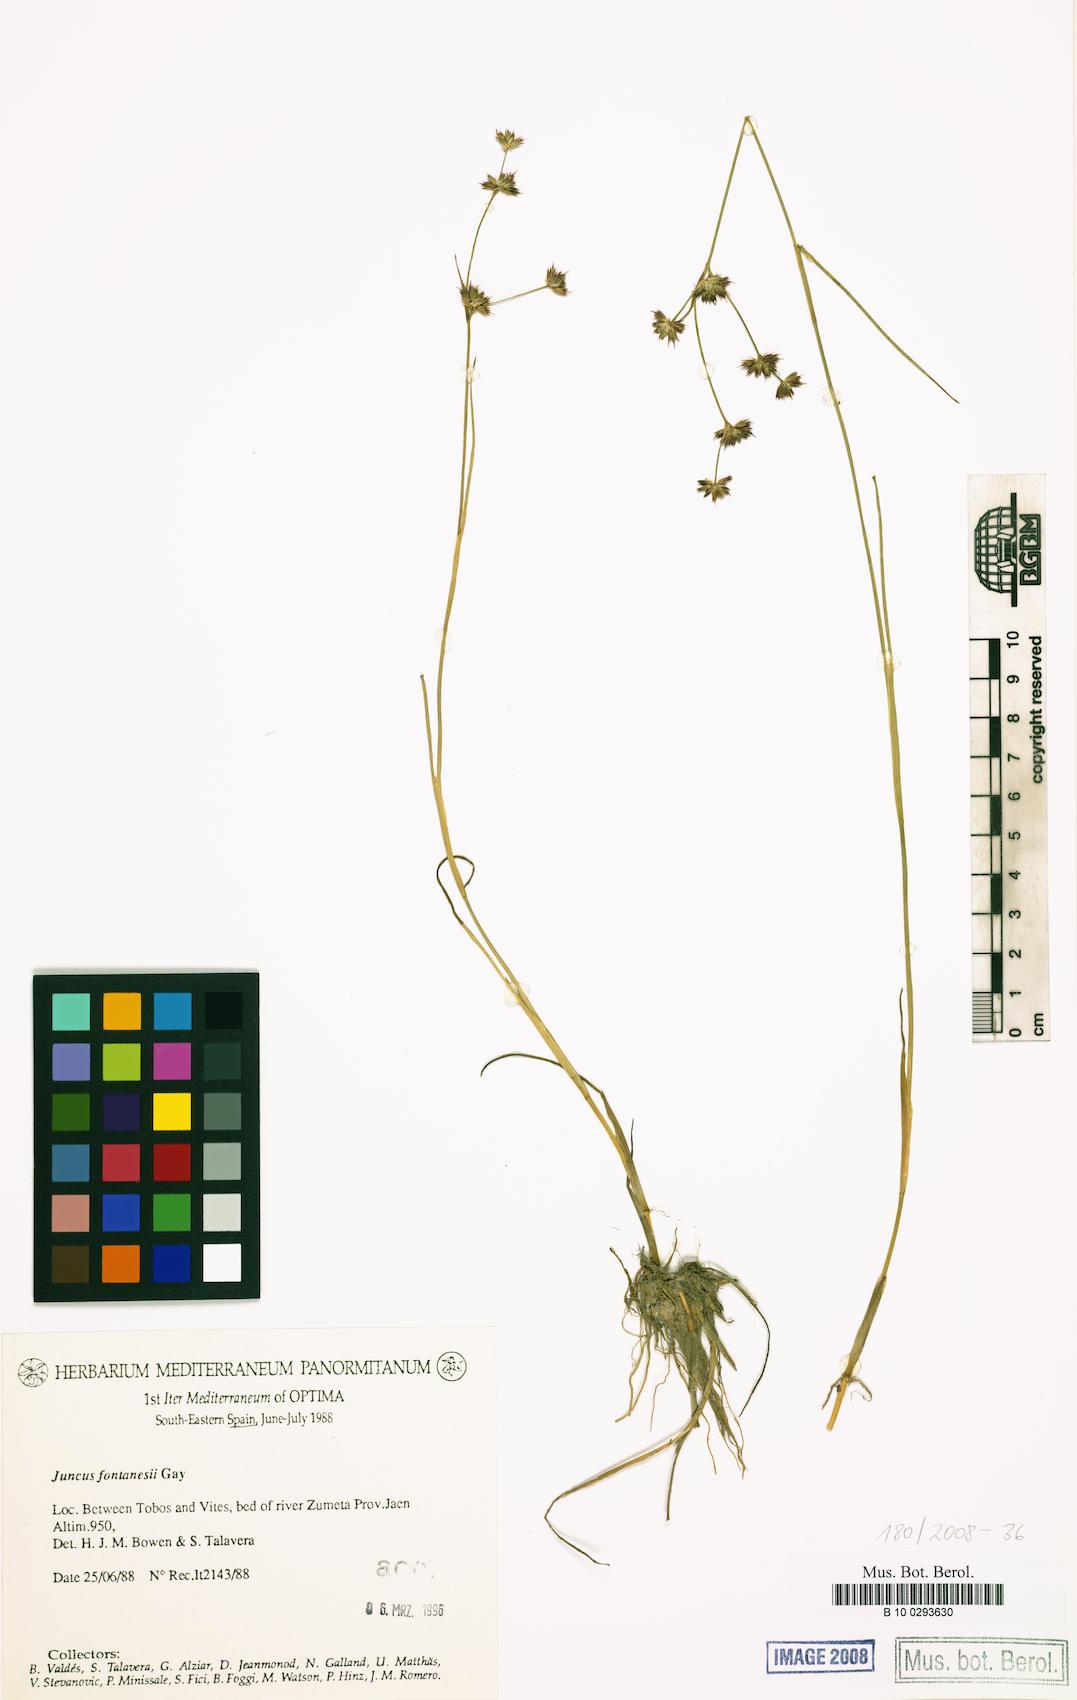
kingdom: Plantae
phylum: Tracheophyta
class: Liliopsida
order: Poales
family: Juncaceae
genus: Juncus
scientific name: Juncus fontanesii
